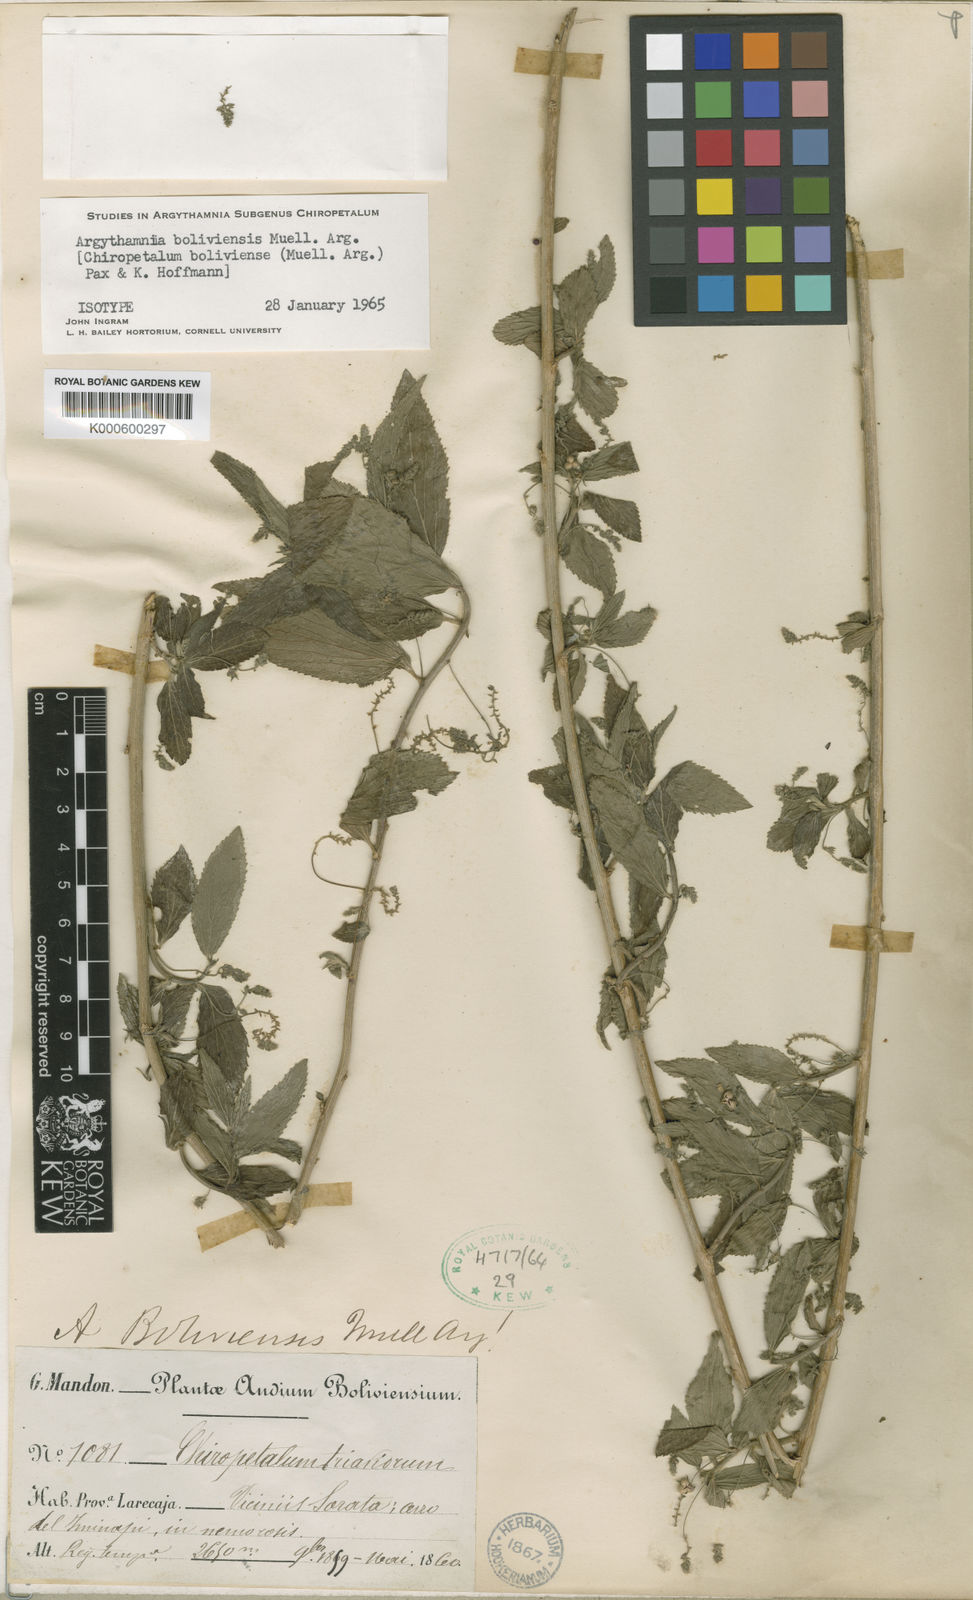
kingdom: Plantae
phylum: Tracheophyta
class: Magnoliopsida
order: Malpighiales
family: Euphorbiaceae
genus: Chiropetalum
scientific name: Chiropetalum
